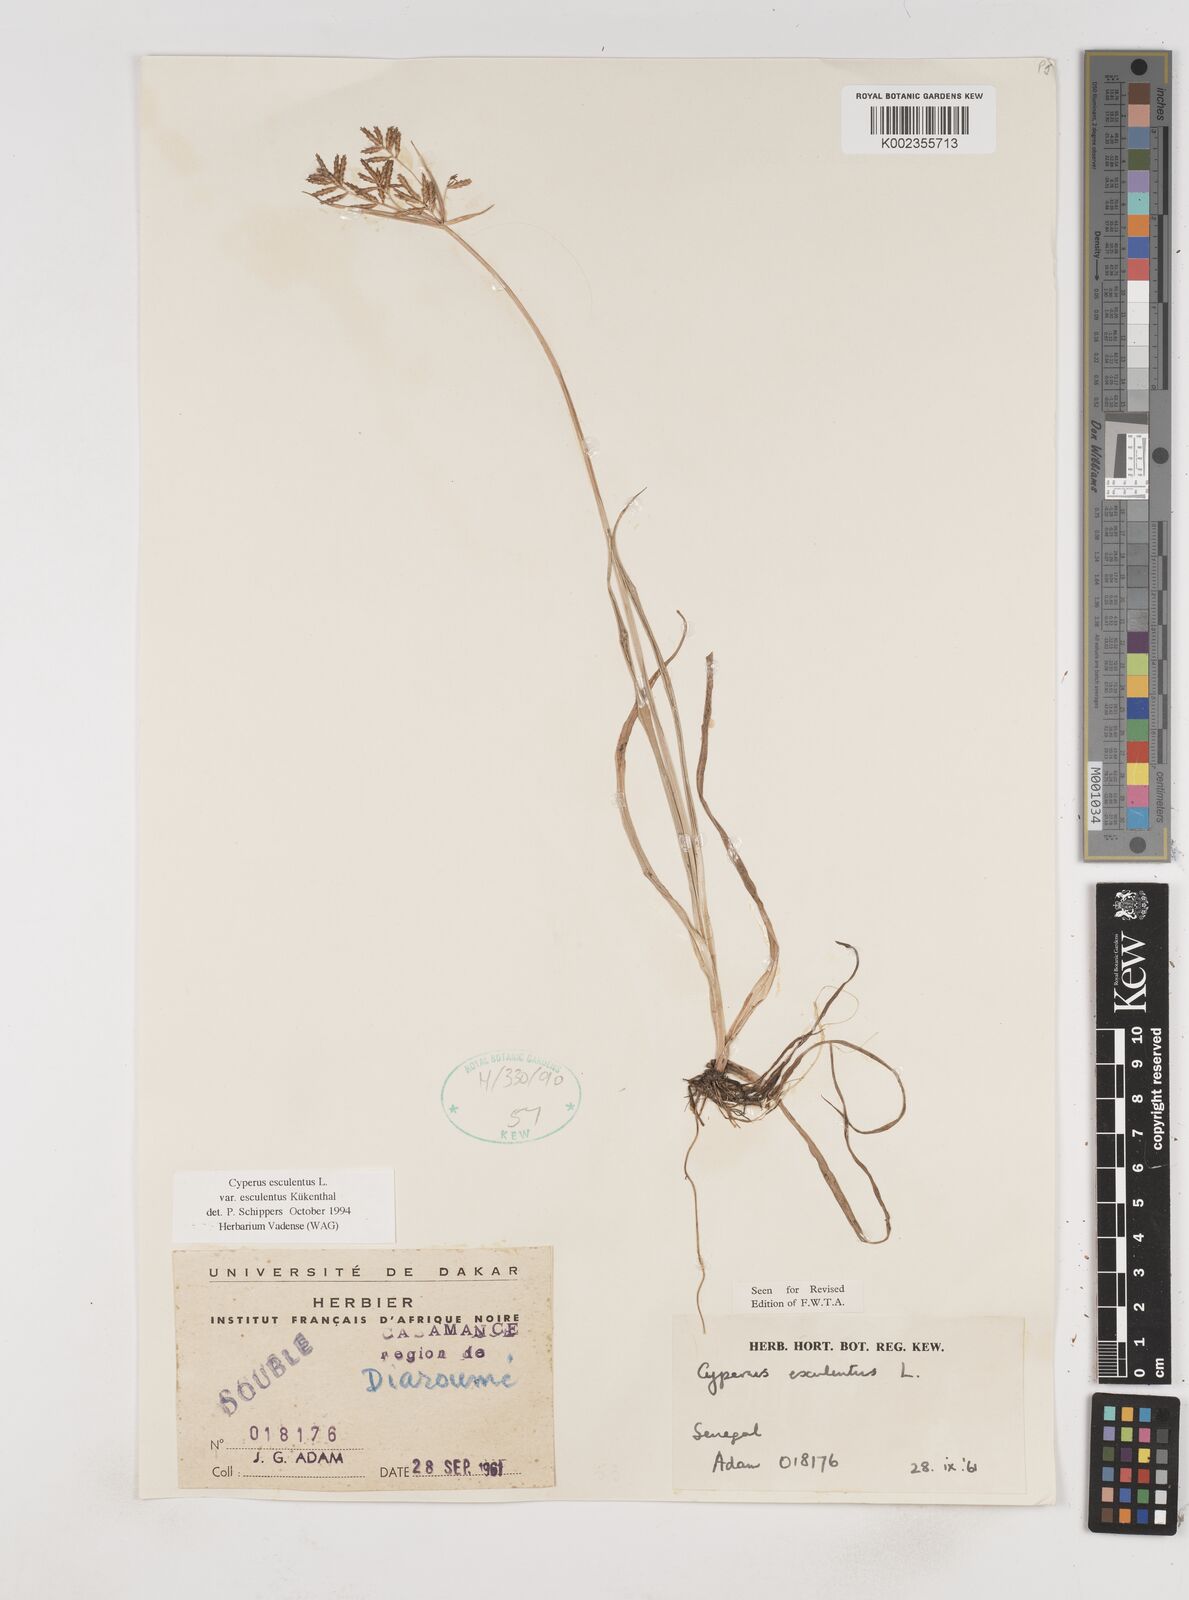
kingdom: Plantae
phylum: Tracheophyta
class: Liliopsida
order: Poales
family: Cyperaceae
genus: Cyperus
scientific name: Cyperus esculentus
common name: Yellow nutsedge
